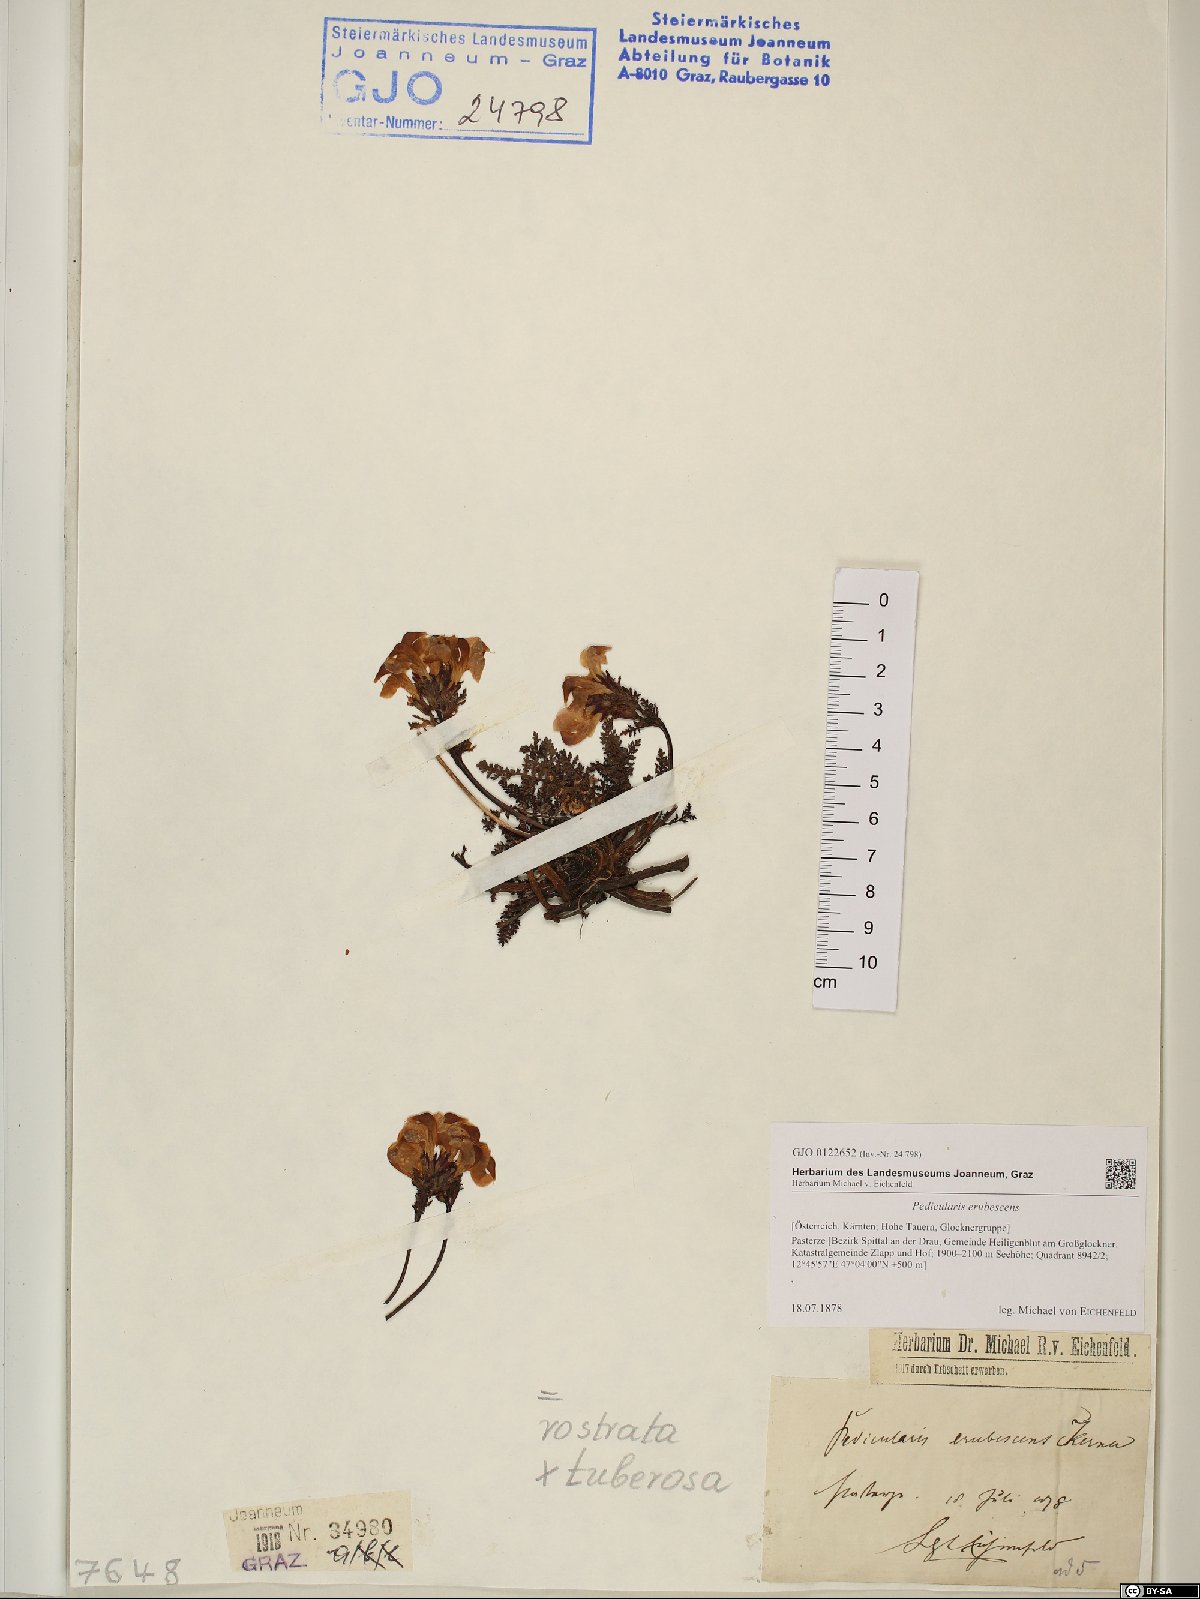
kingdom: Plantae
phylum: Tracheophyta
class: Magnoliopsida
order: Lamiales
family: Scrophulariaceae
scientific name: Scrophulariaceae
